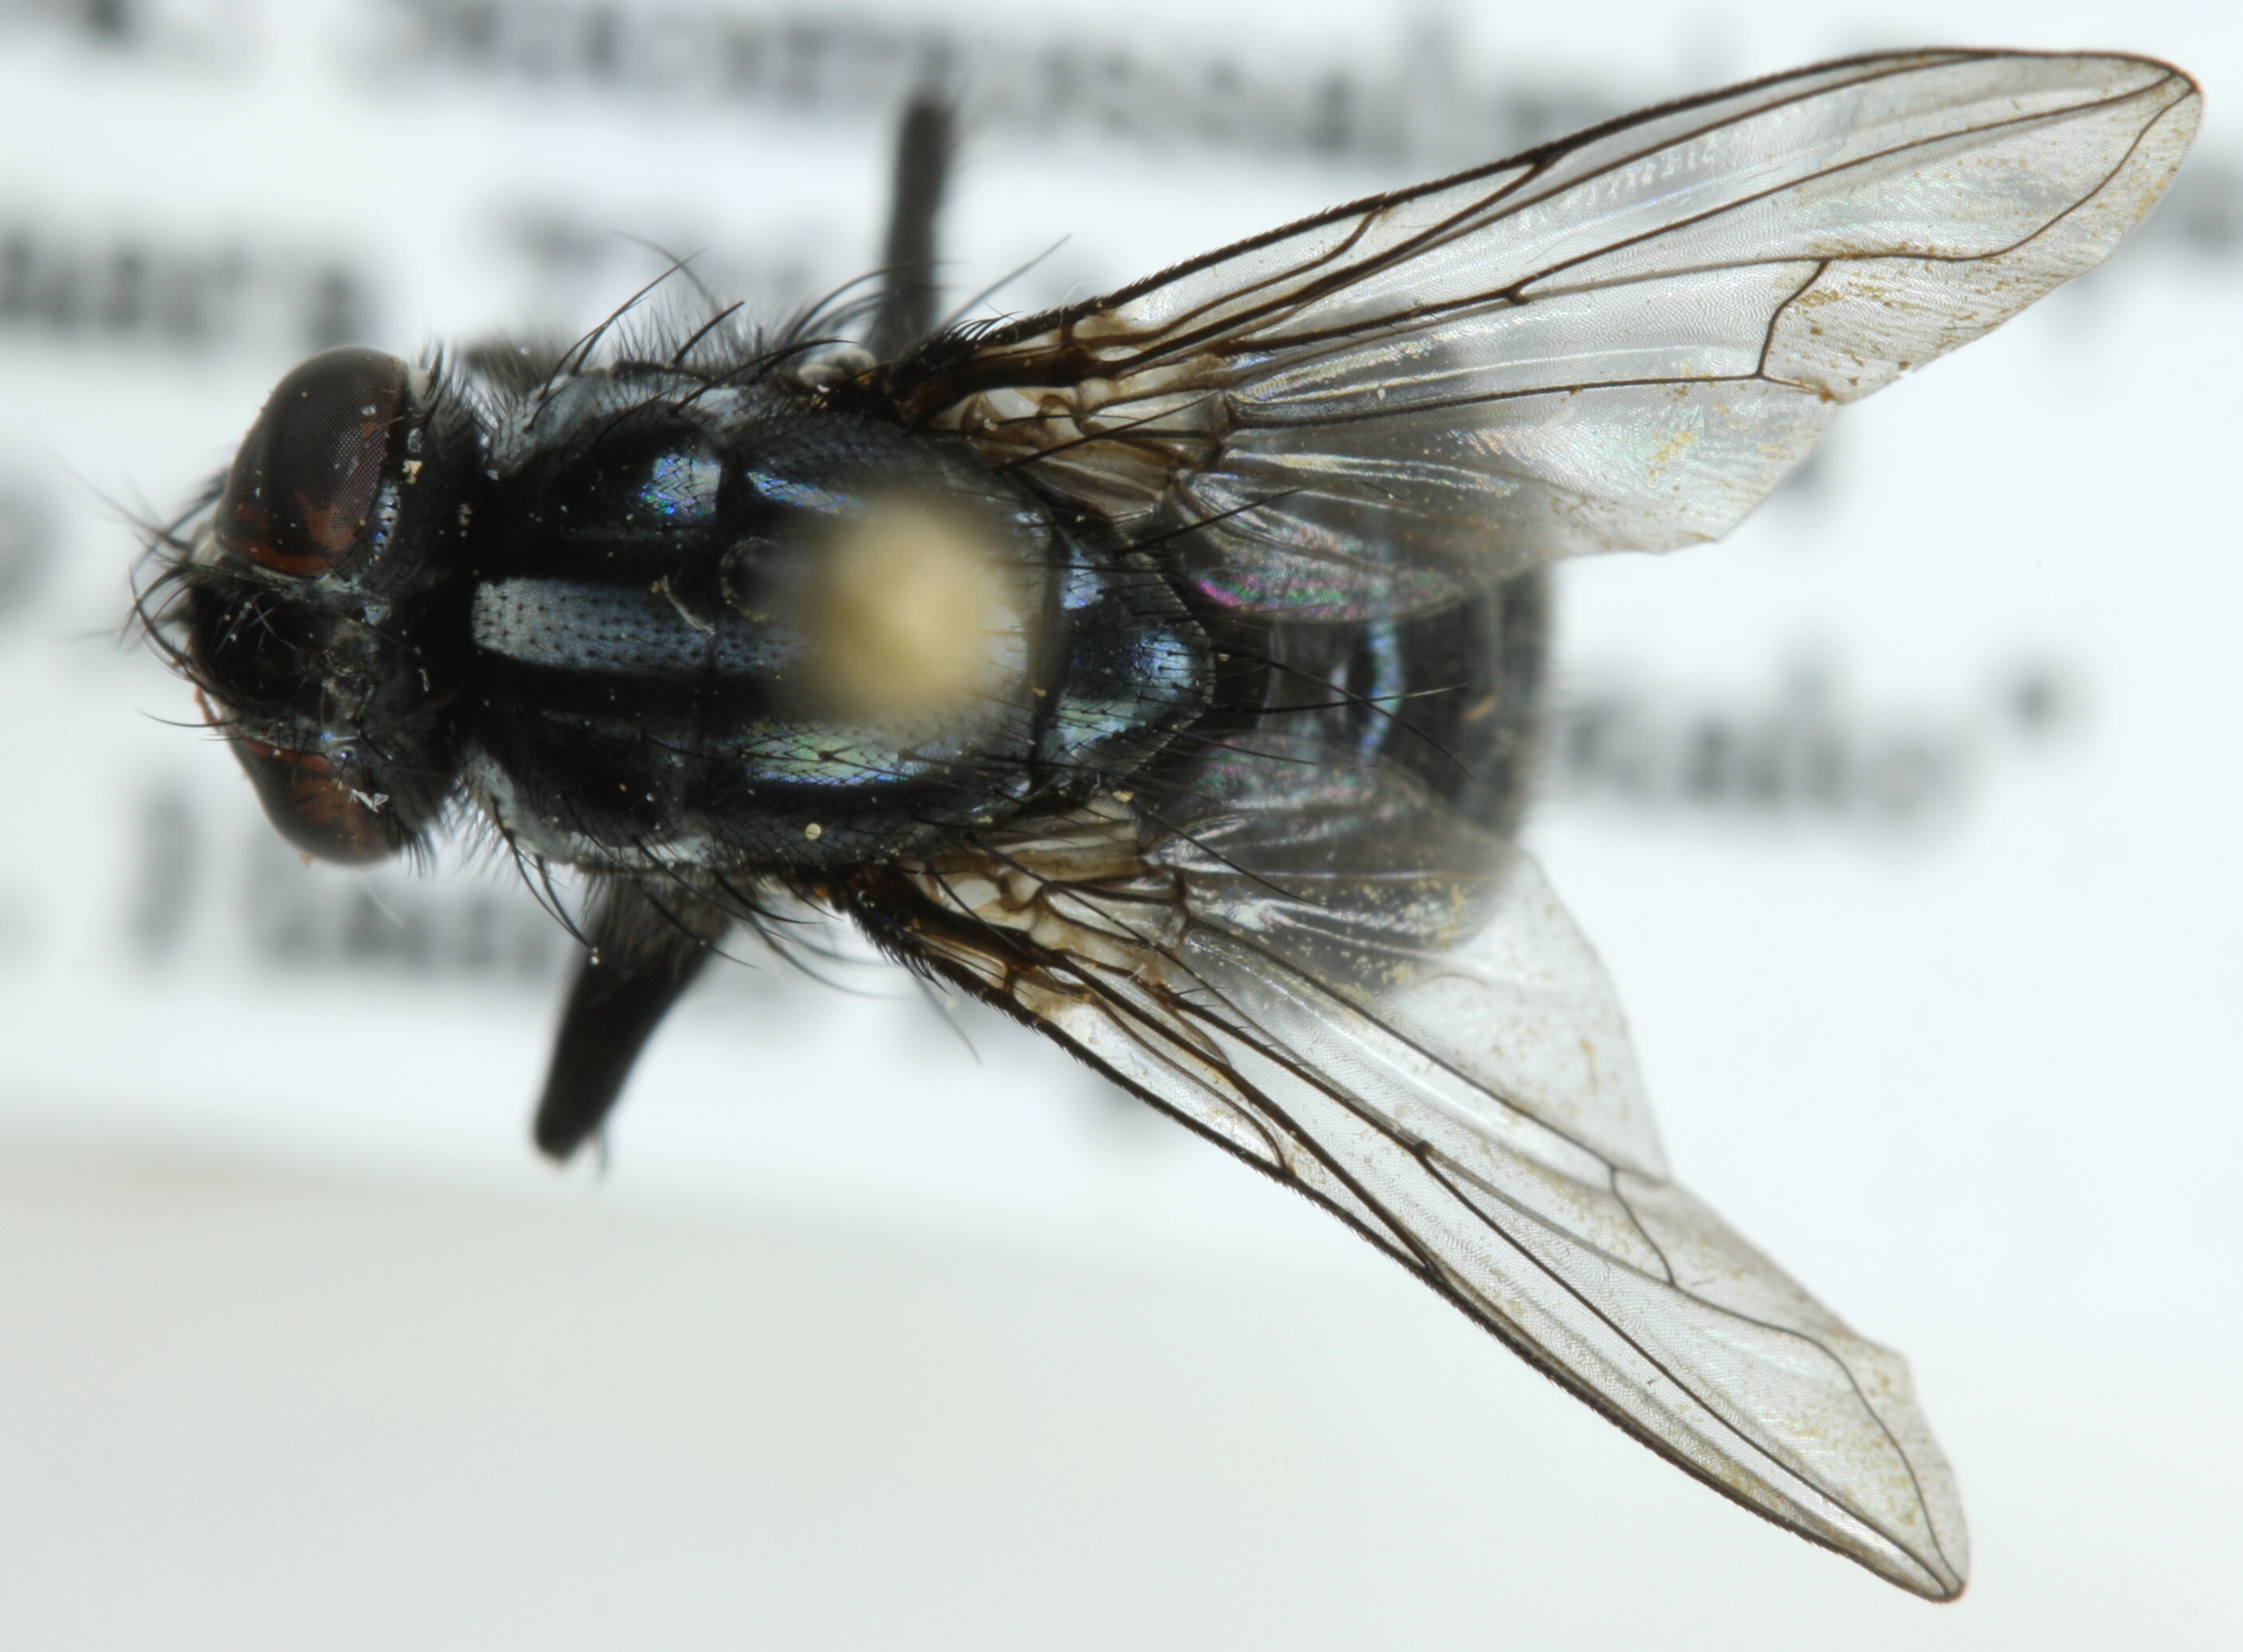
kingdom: Animalia
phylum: Arthropoda
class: Insecta
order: Diptera
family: Muscidae
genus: Morellia
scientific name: Morellia podagrica
